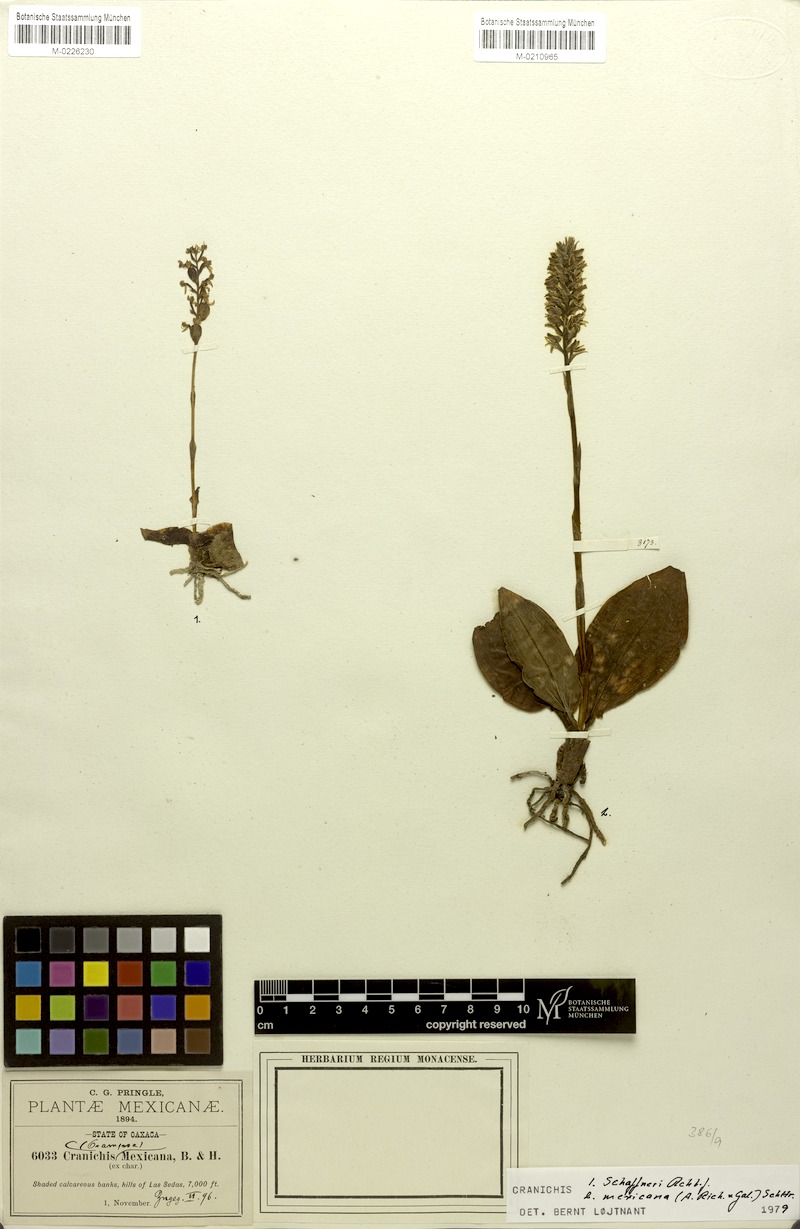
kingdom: Plantae
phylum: Tracheophyta
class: Liliopsida
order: Asparagales
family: Orchidaceae
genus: Ponthieva
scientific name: Ponthieva mexicana
